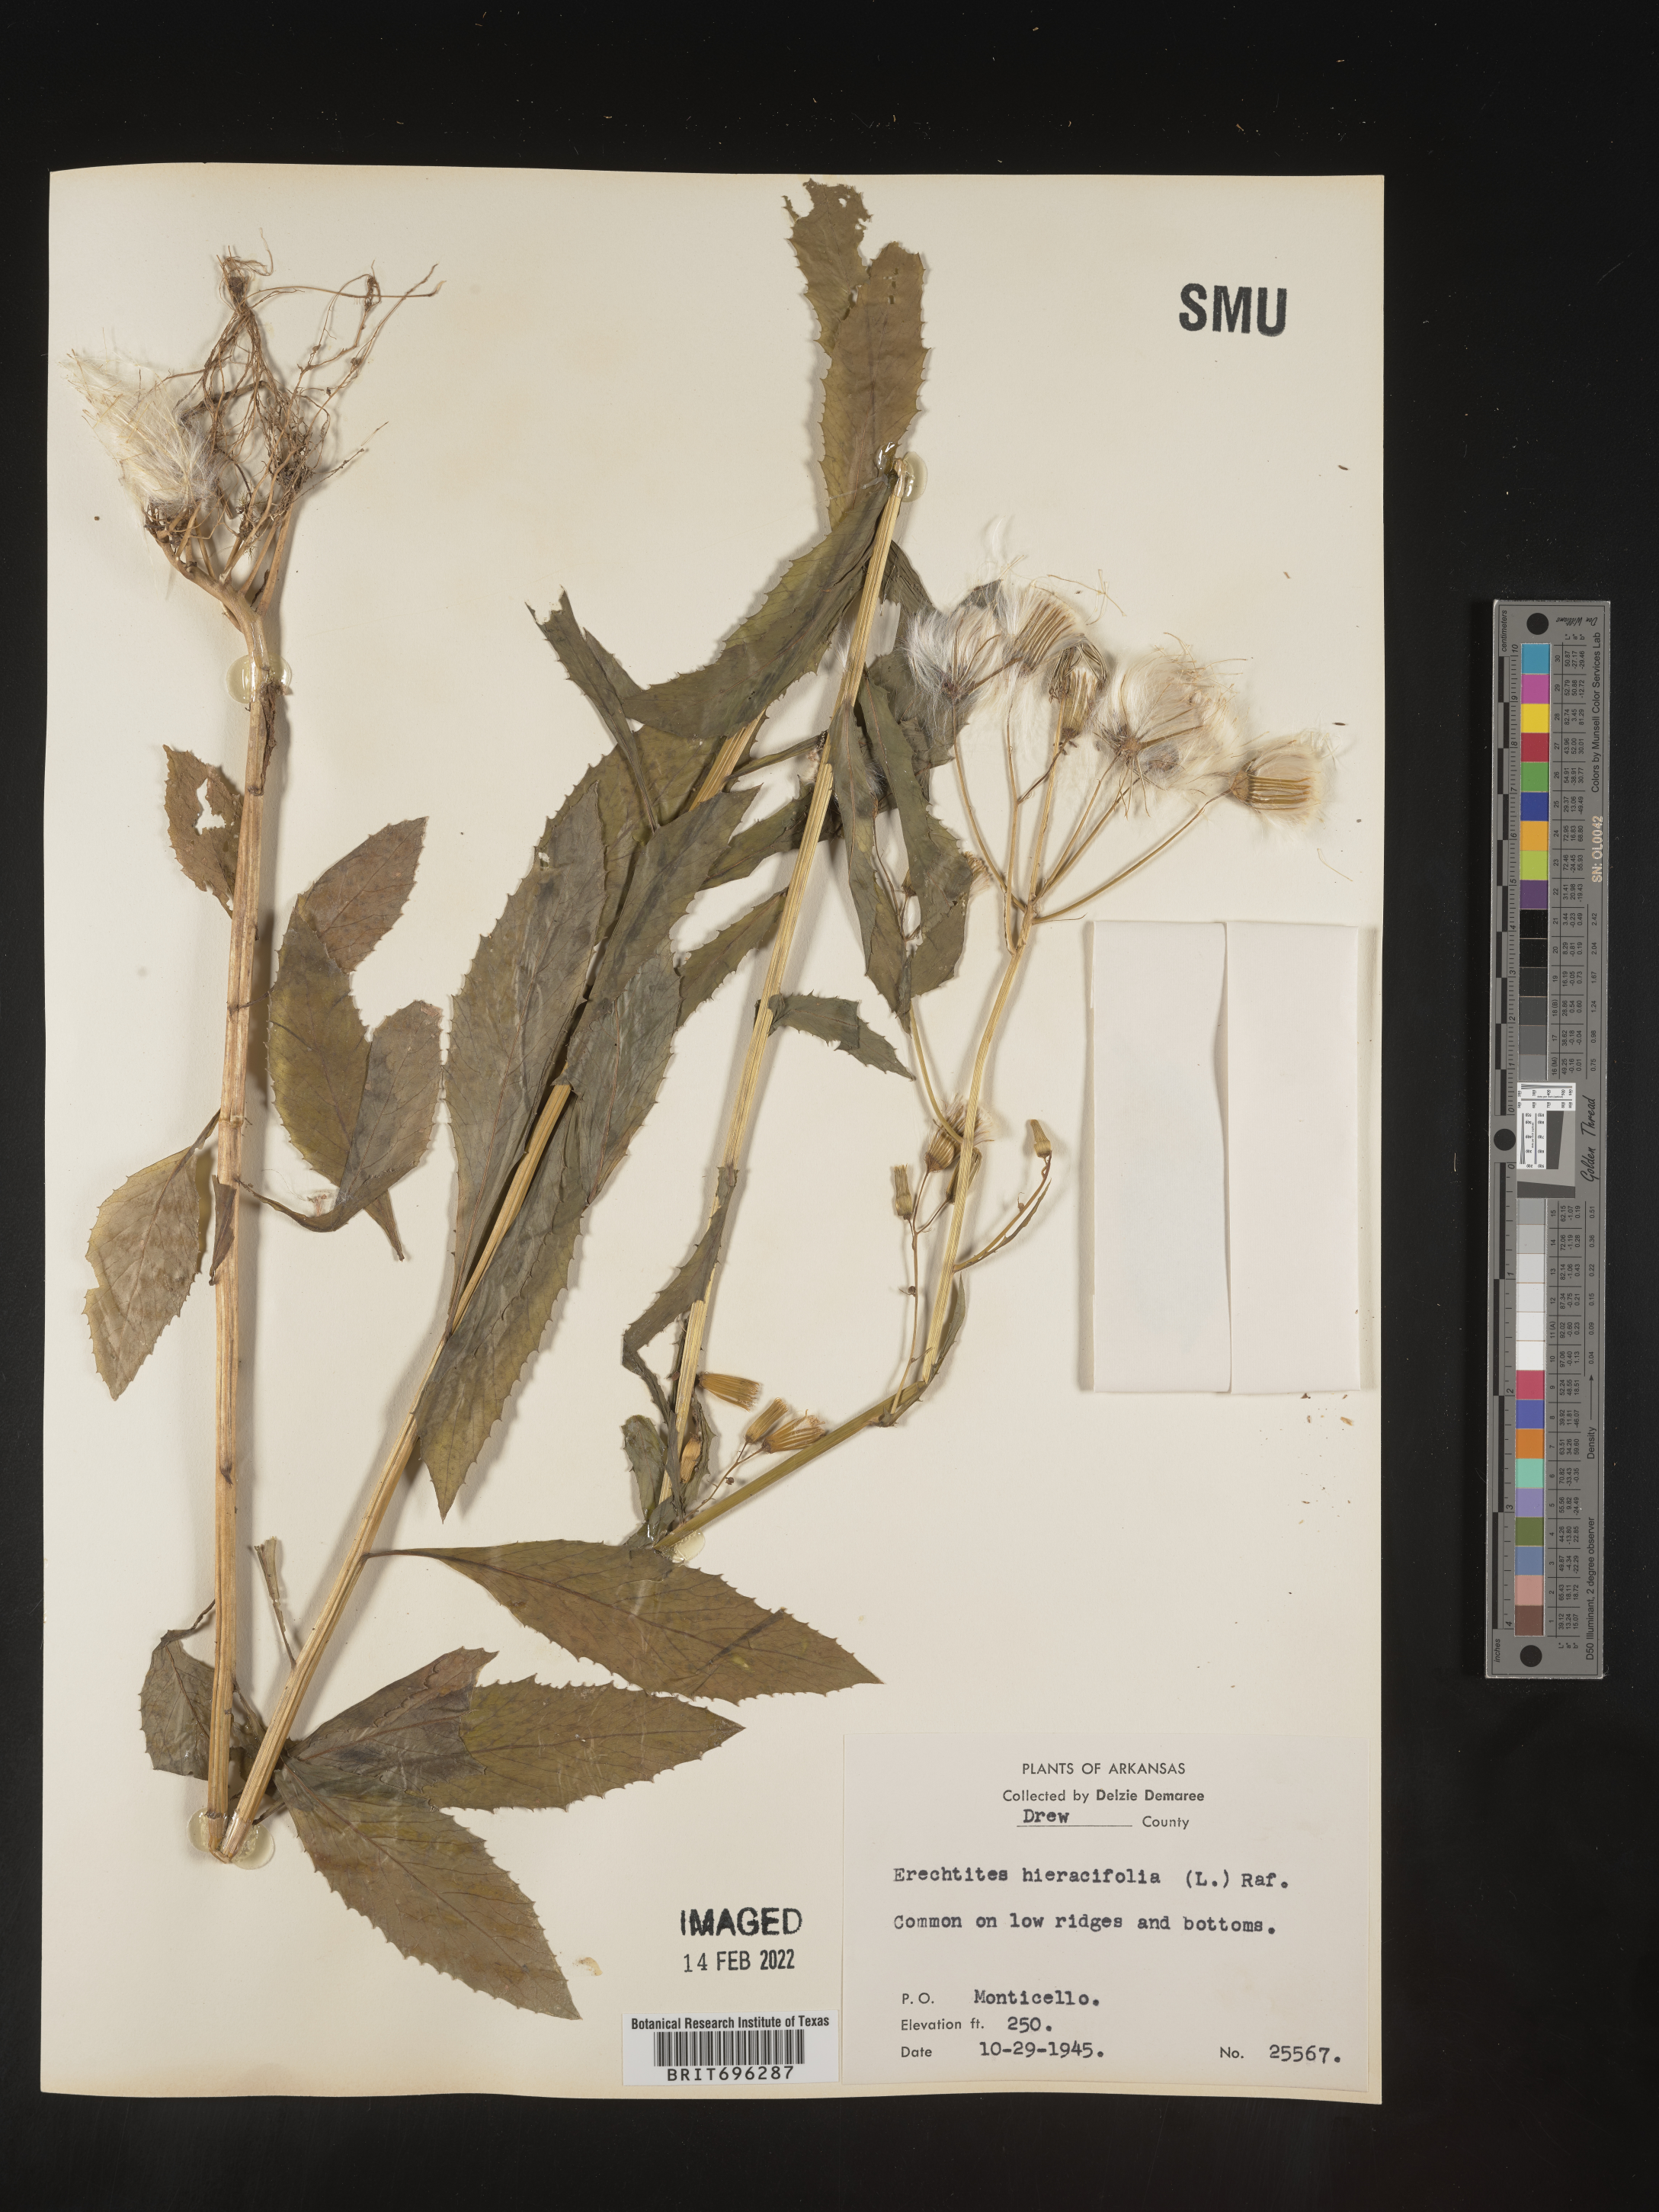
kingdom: Plantae
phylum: Tracheophyta
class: Magnoliopsida
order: Asterales
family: Asteraceae
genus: Erechtites
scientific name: Erechtites hieraciifolius
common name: American burnweed
